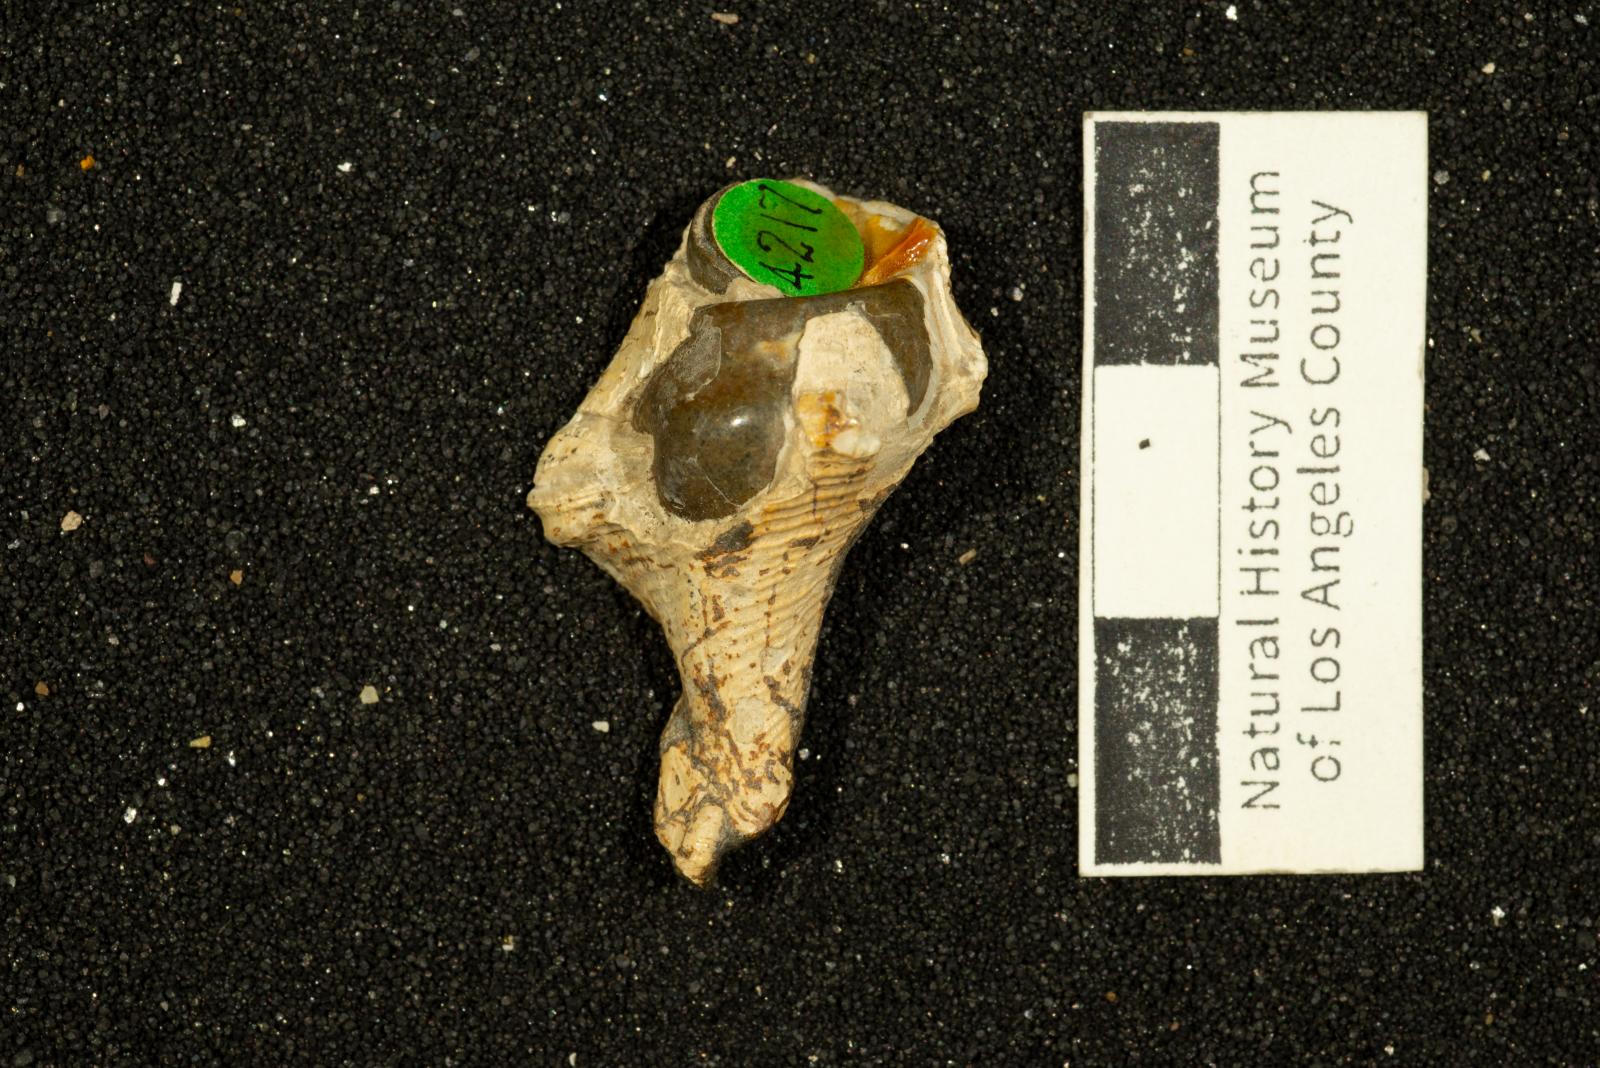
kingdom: Animalia
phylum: Mollusca
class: Gastropoda
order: Neogastropoda
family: Perissityidae
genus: Forsia
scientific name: Forsia lorda
